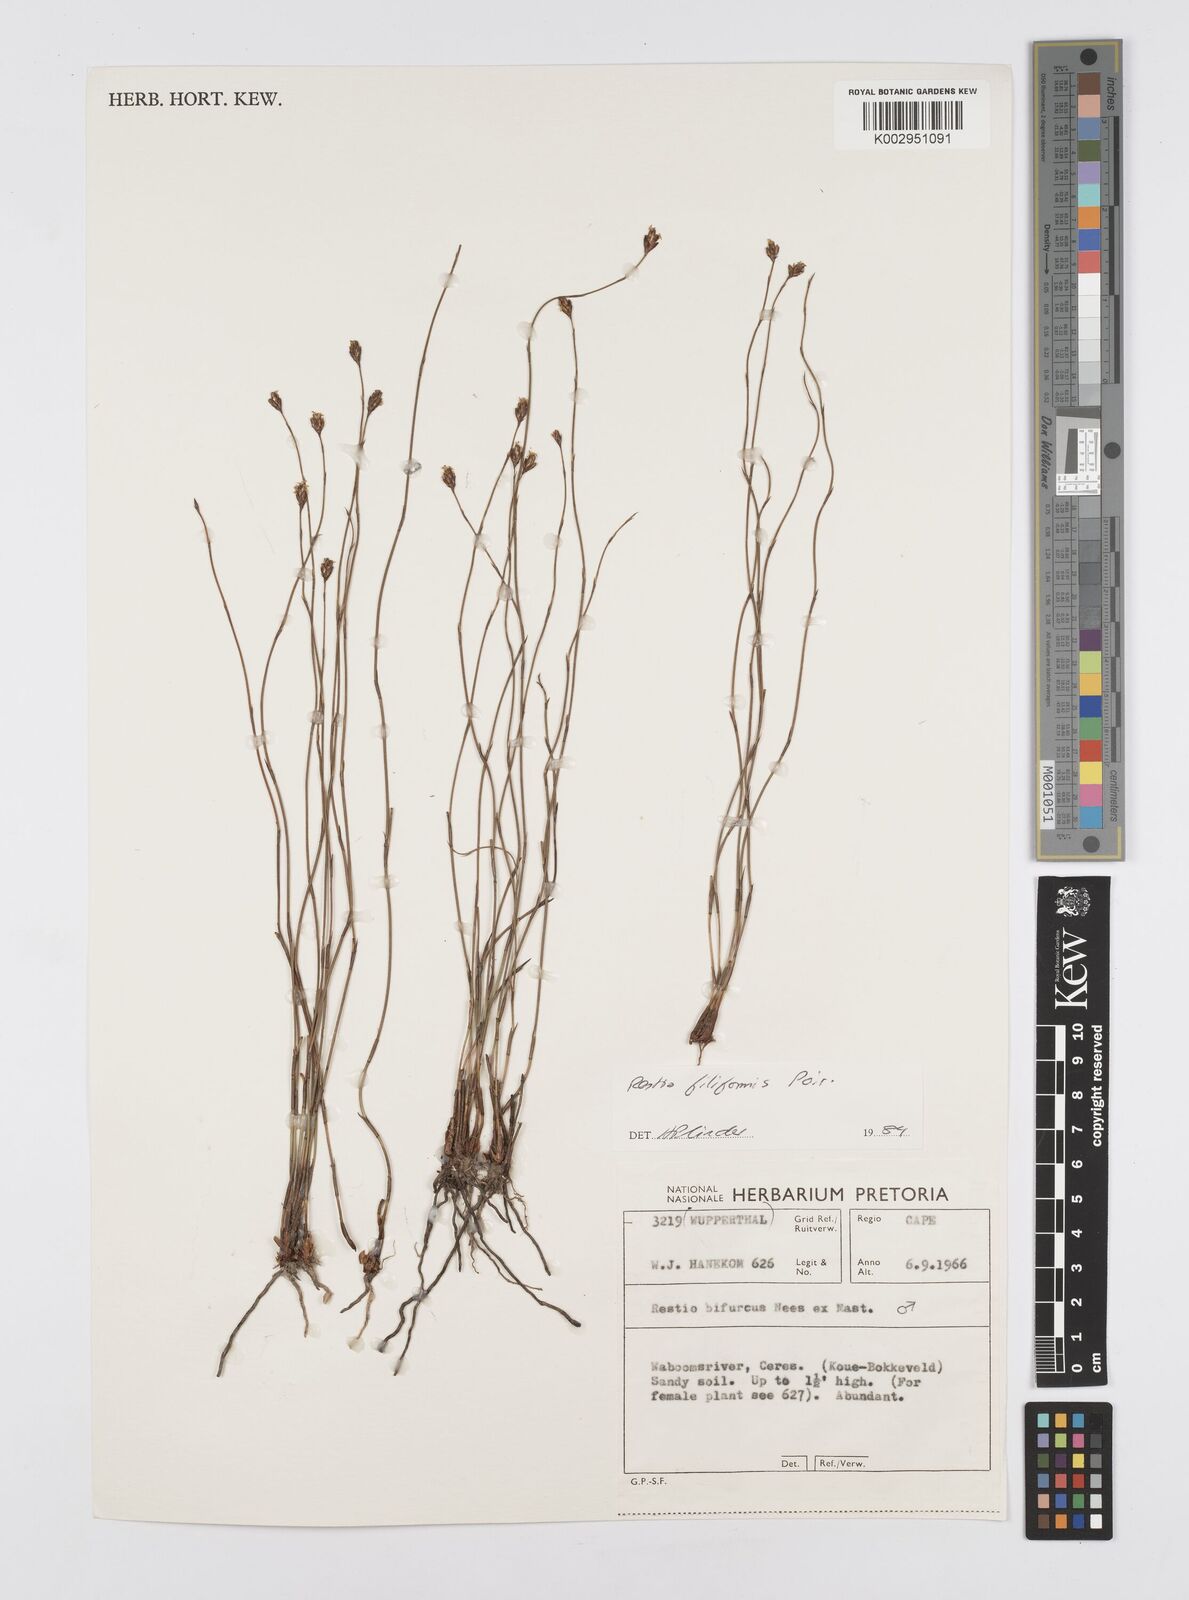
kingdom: Plantae
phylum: Tracheophyta
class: Liliopsida
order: Poales
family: Restionaceae
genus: Restio
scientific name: Restio filiformis
